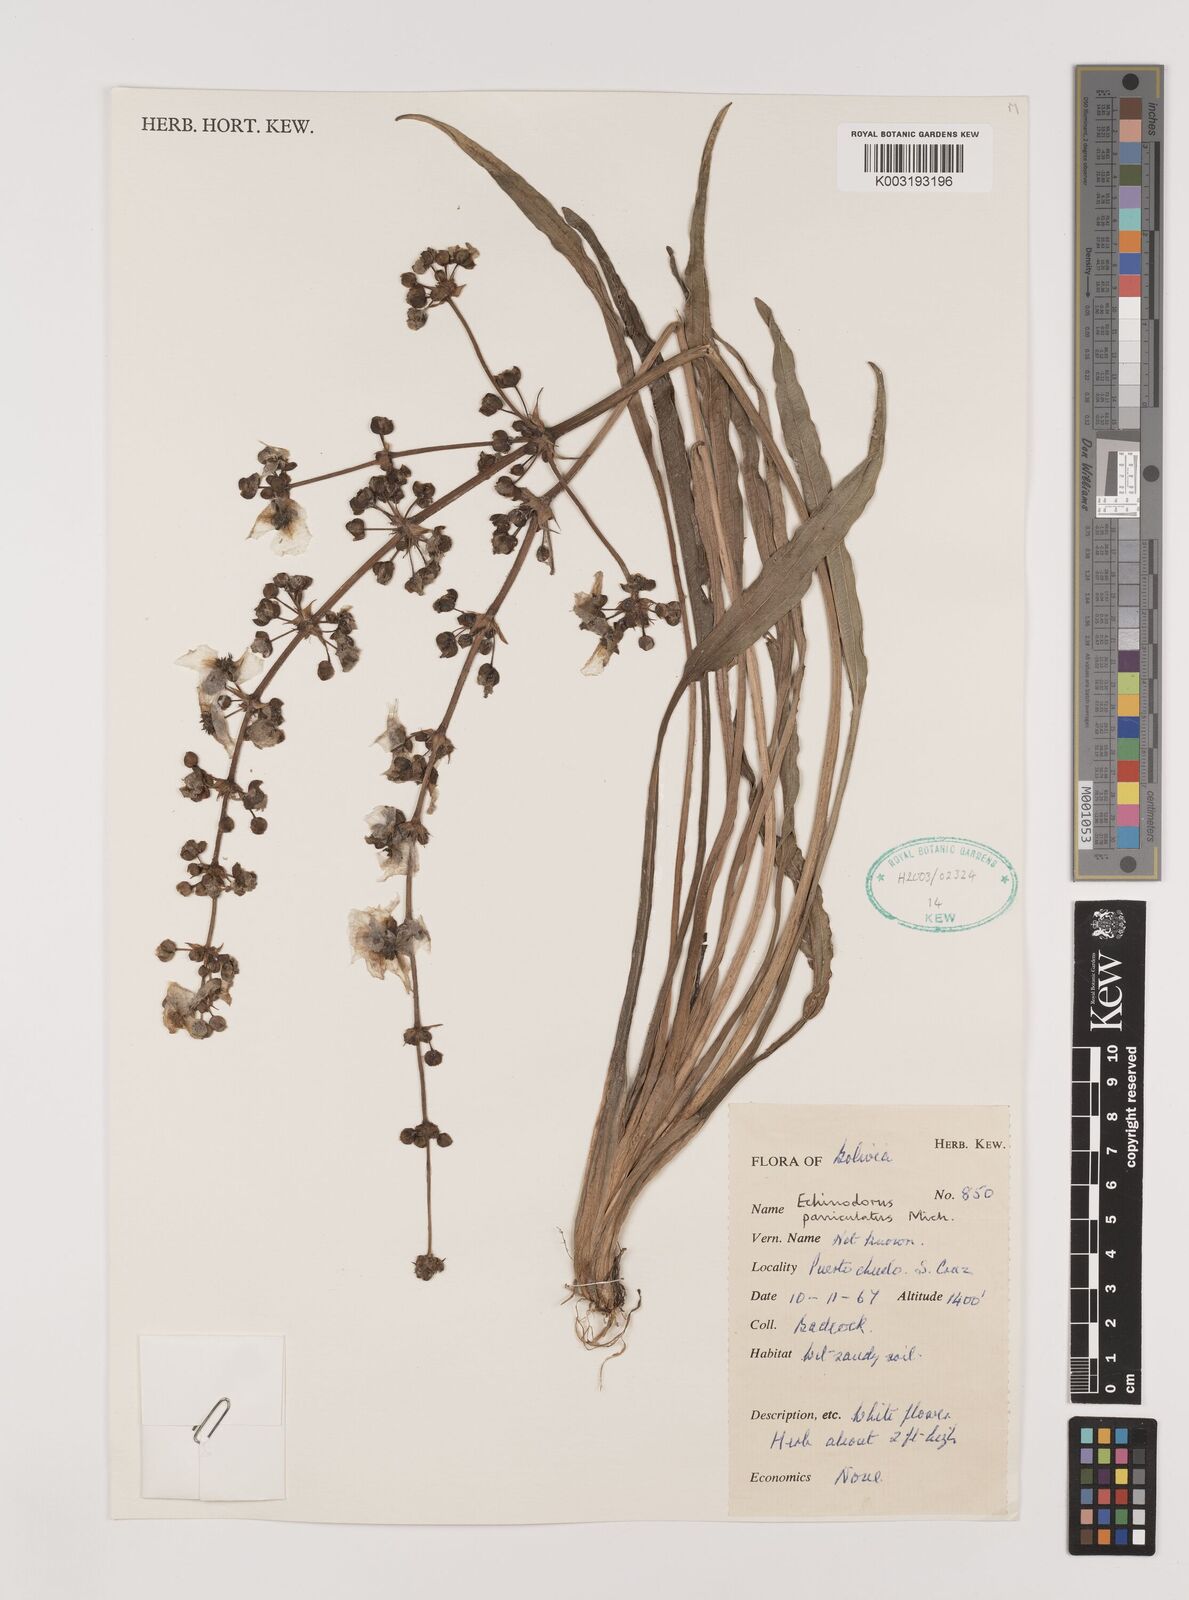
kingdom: Plantae
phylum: Tracheophyta
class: Liliopsida
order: Alismatales
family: Alismataceae
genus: Aquarius
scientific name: Aquarius paniculatus
